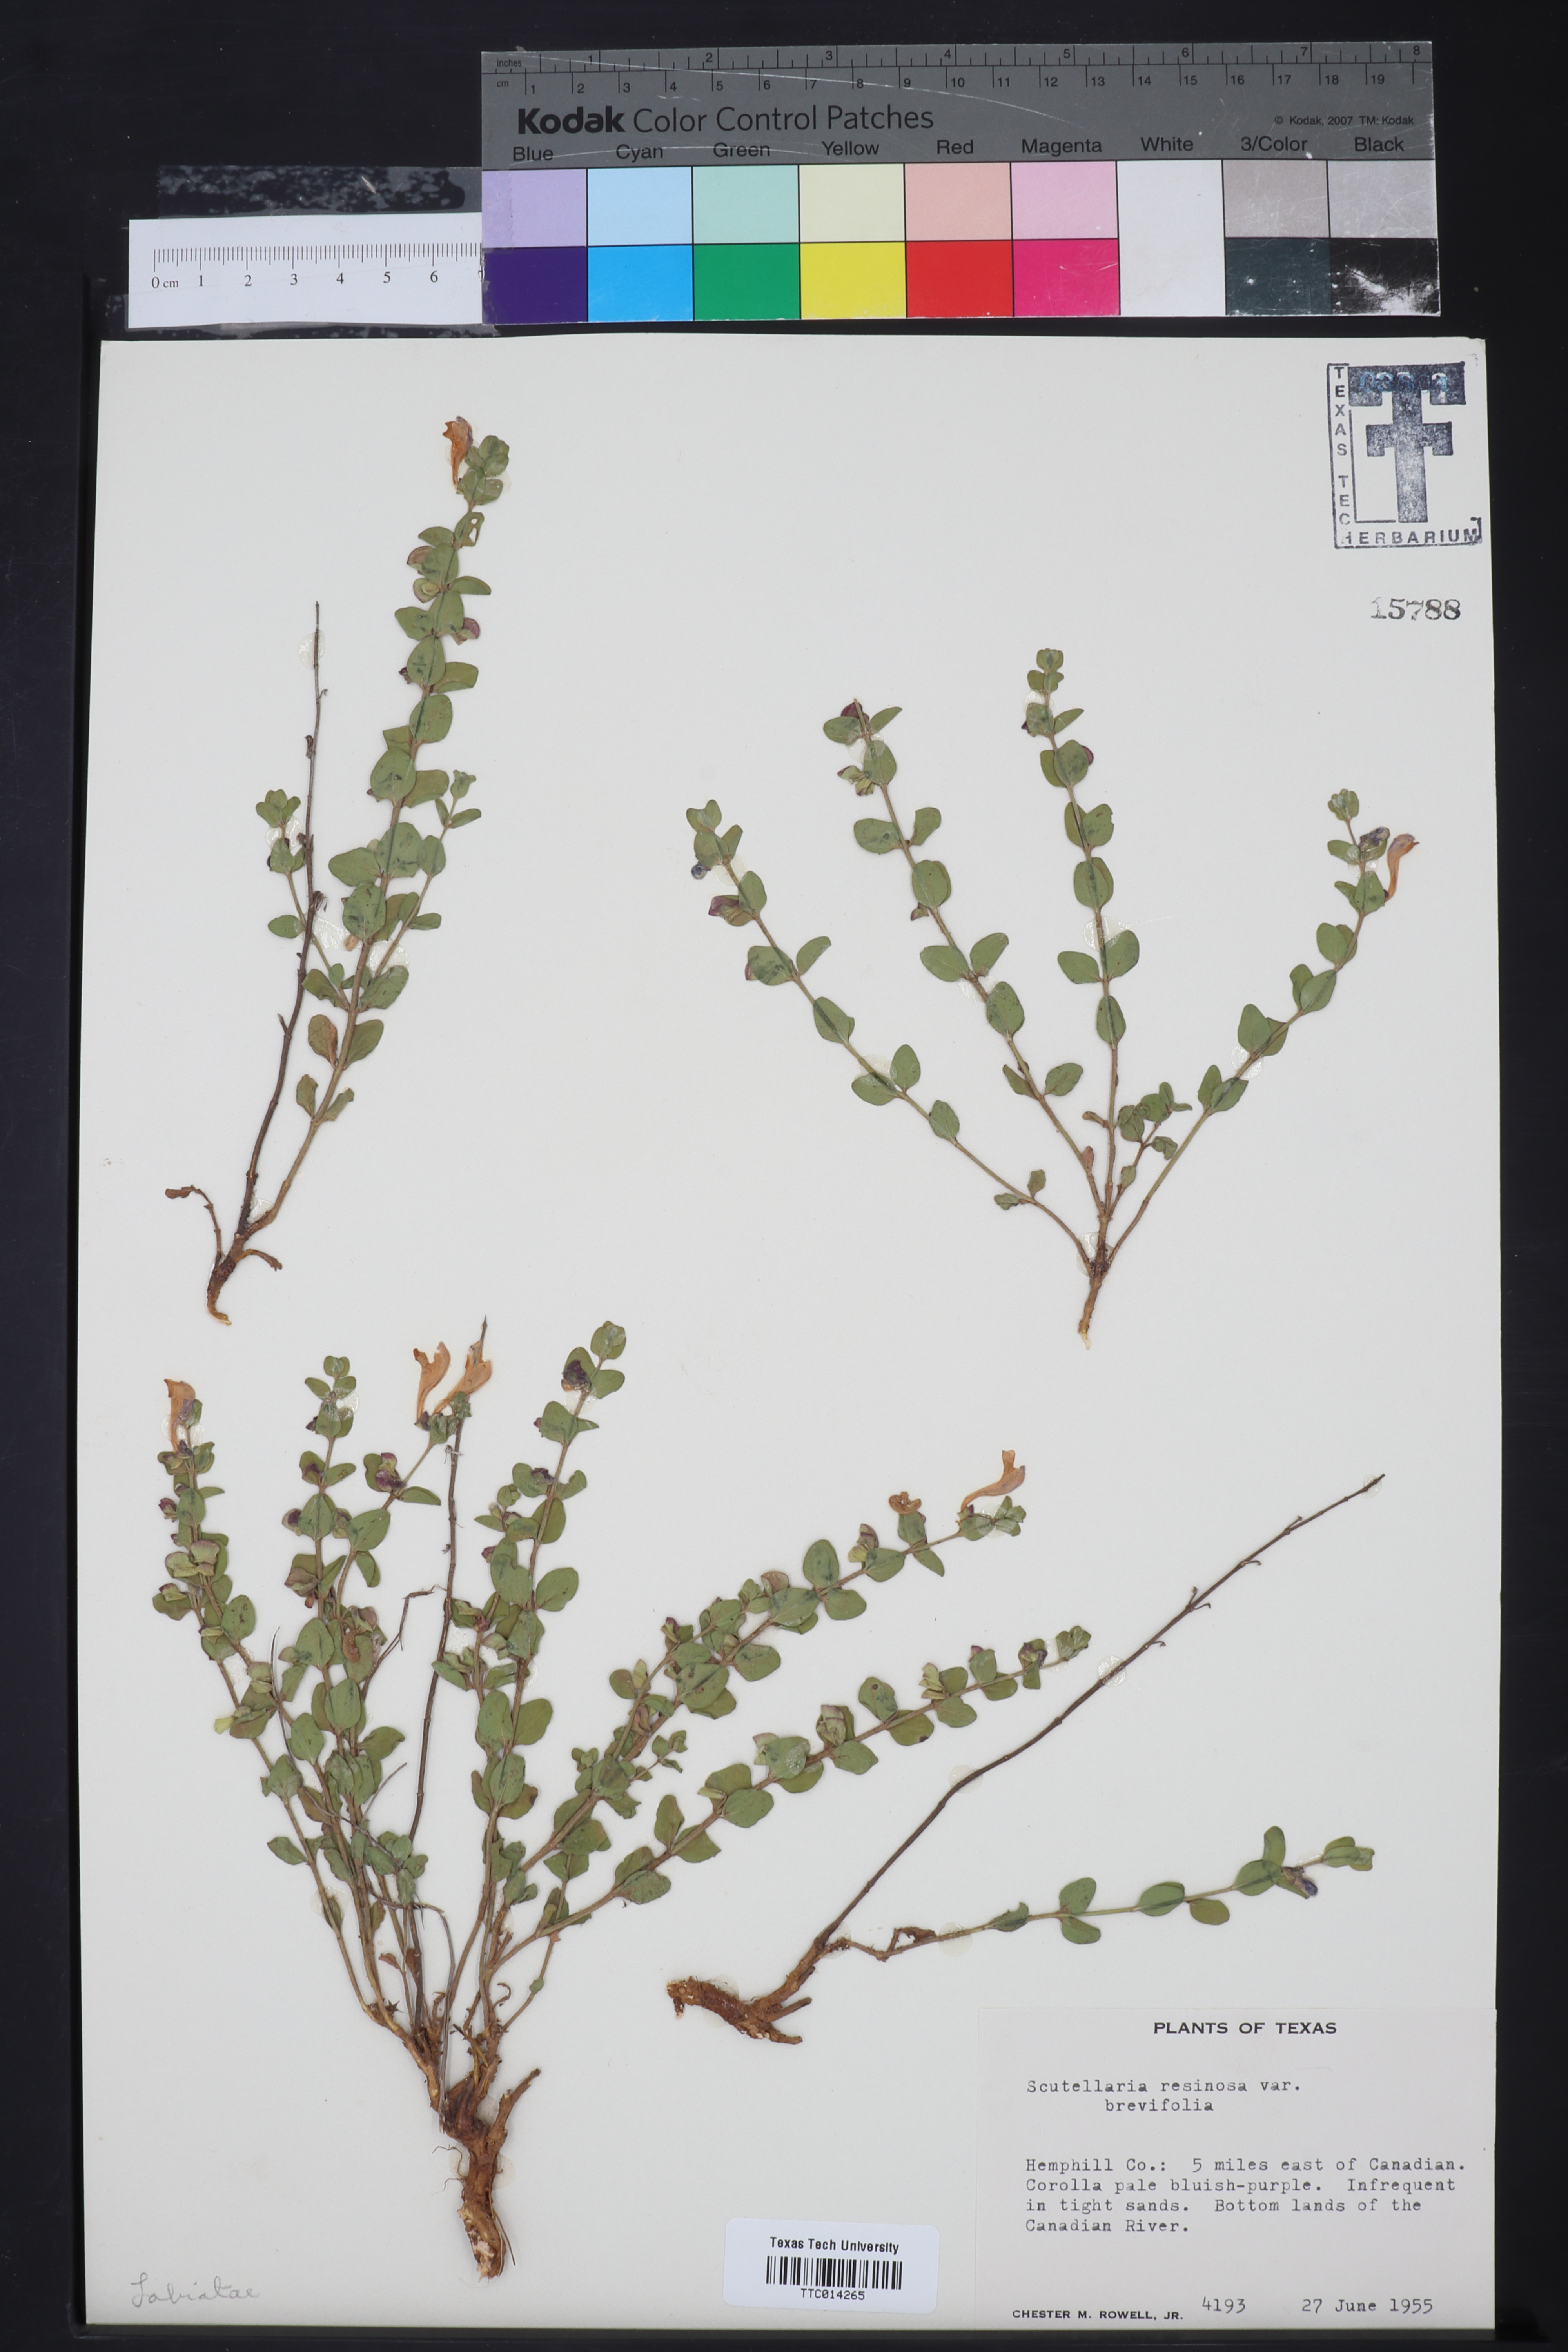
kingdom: Plantae
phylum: Tracheophyta
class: Magnoliopsida
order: Lamiales
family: Lamiaceae
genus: Scutellaria
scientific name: Scutellaria resinosa
